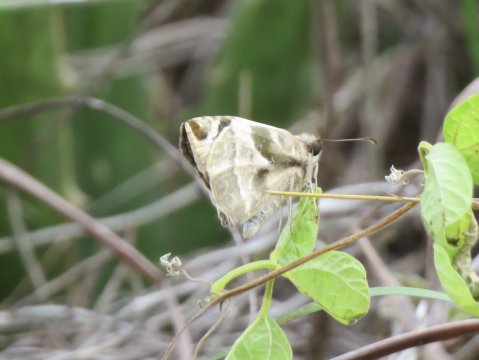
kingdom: Animalia
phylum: Arthropoda
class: Insecta
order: Lepidoptera
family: Hesperiidae
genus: Heliopetes
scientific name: Heliopetes laviana
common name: Laviana White-Skipper
